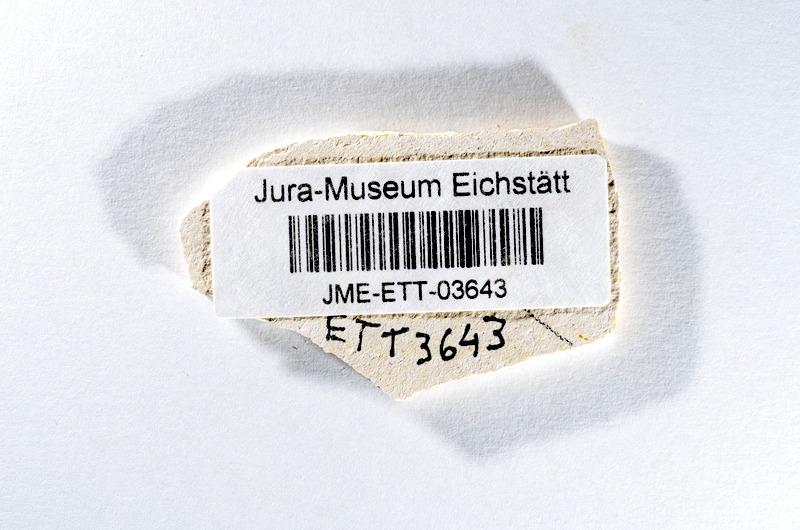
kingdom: Animalia
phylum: Chordata
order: Salmoniformes
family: Orthogonikleithridae
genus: Orthogonikleithrus
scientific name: Orthogonikleithrus hoelli
